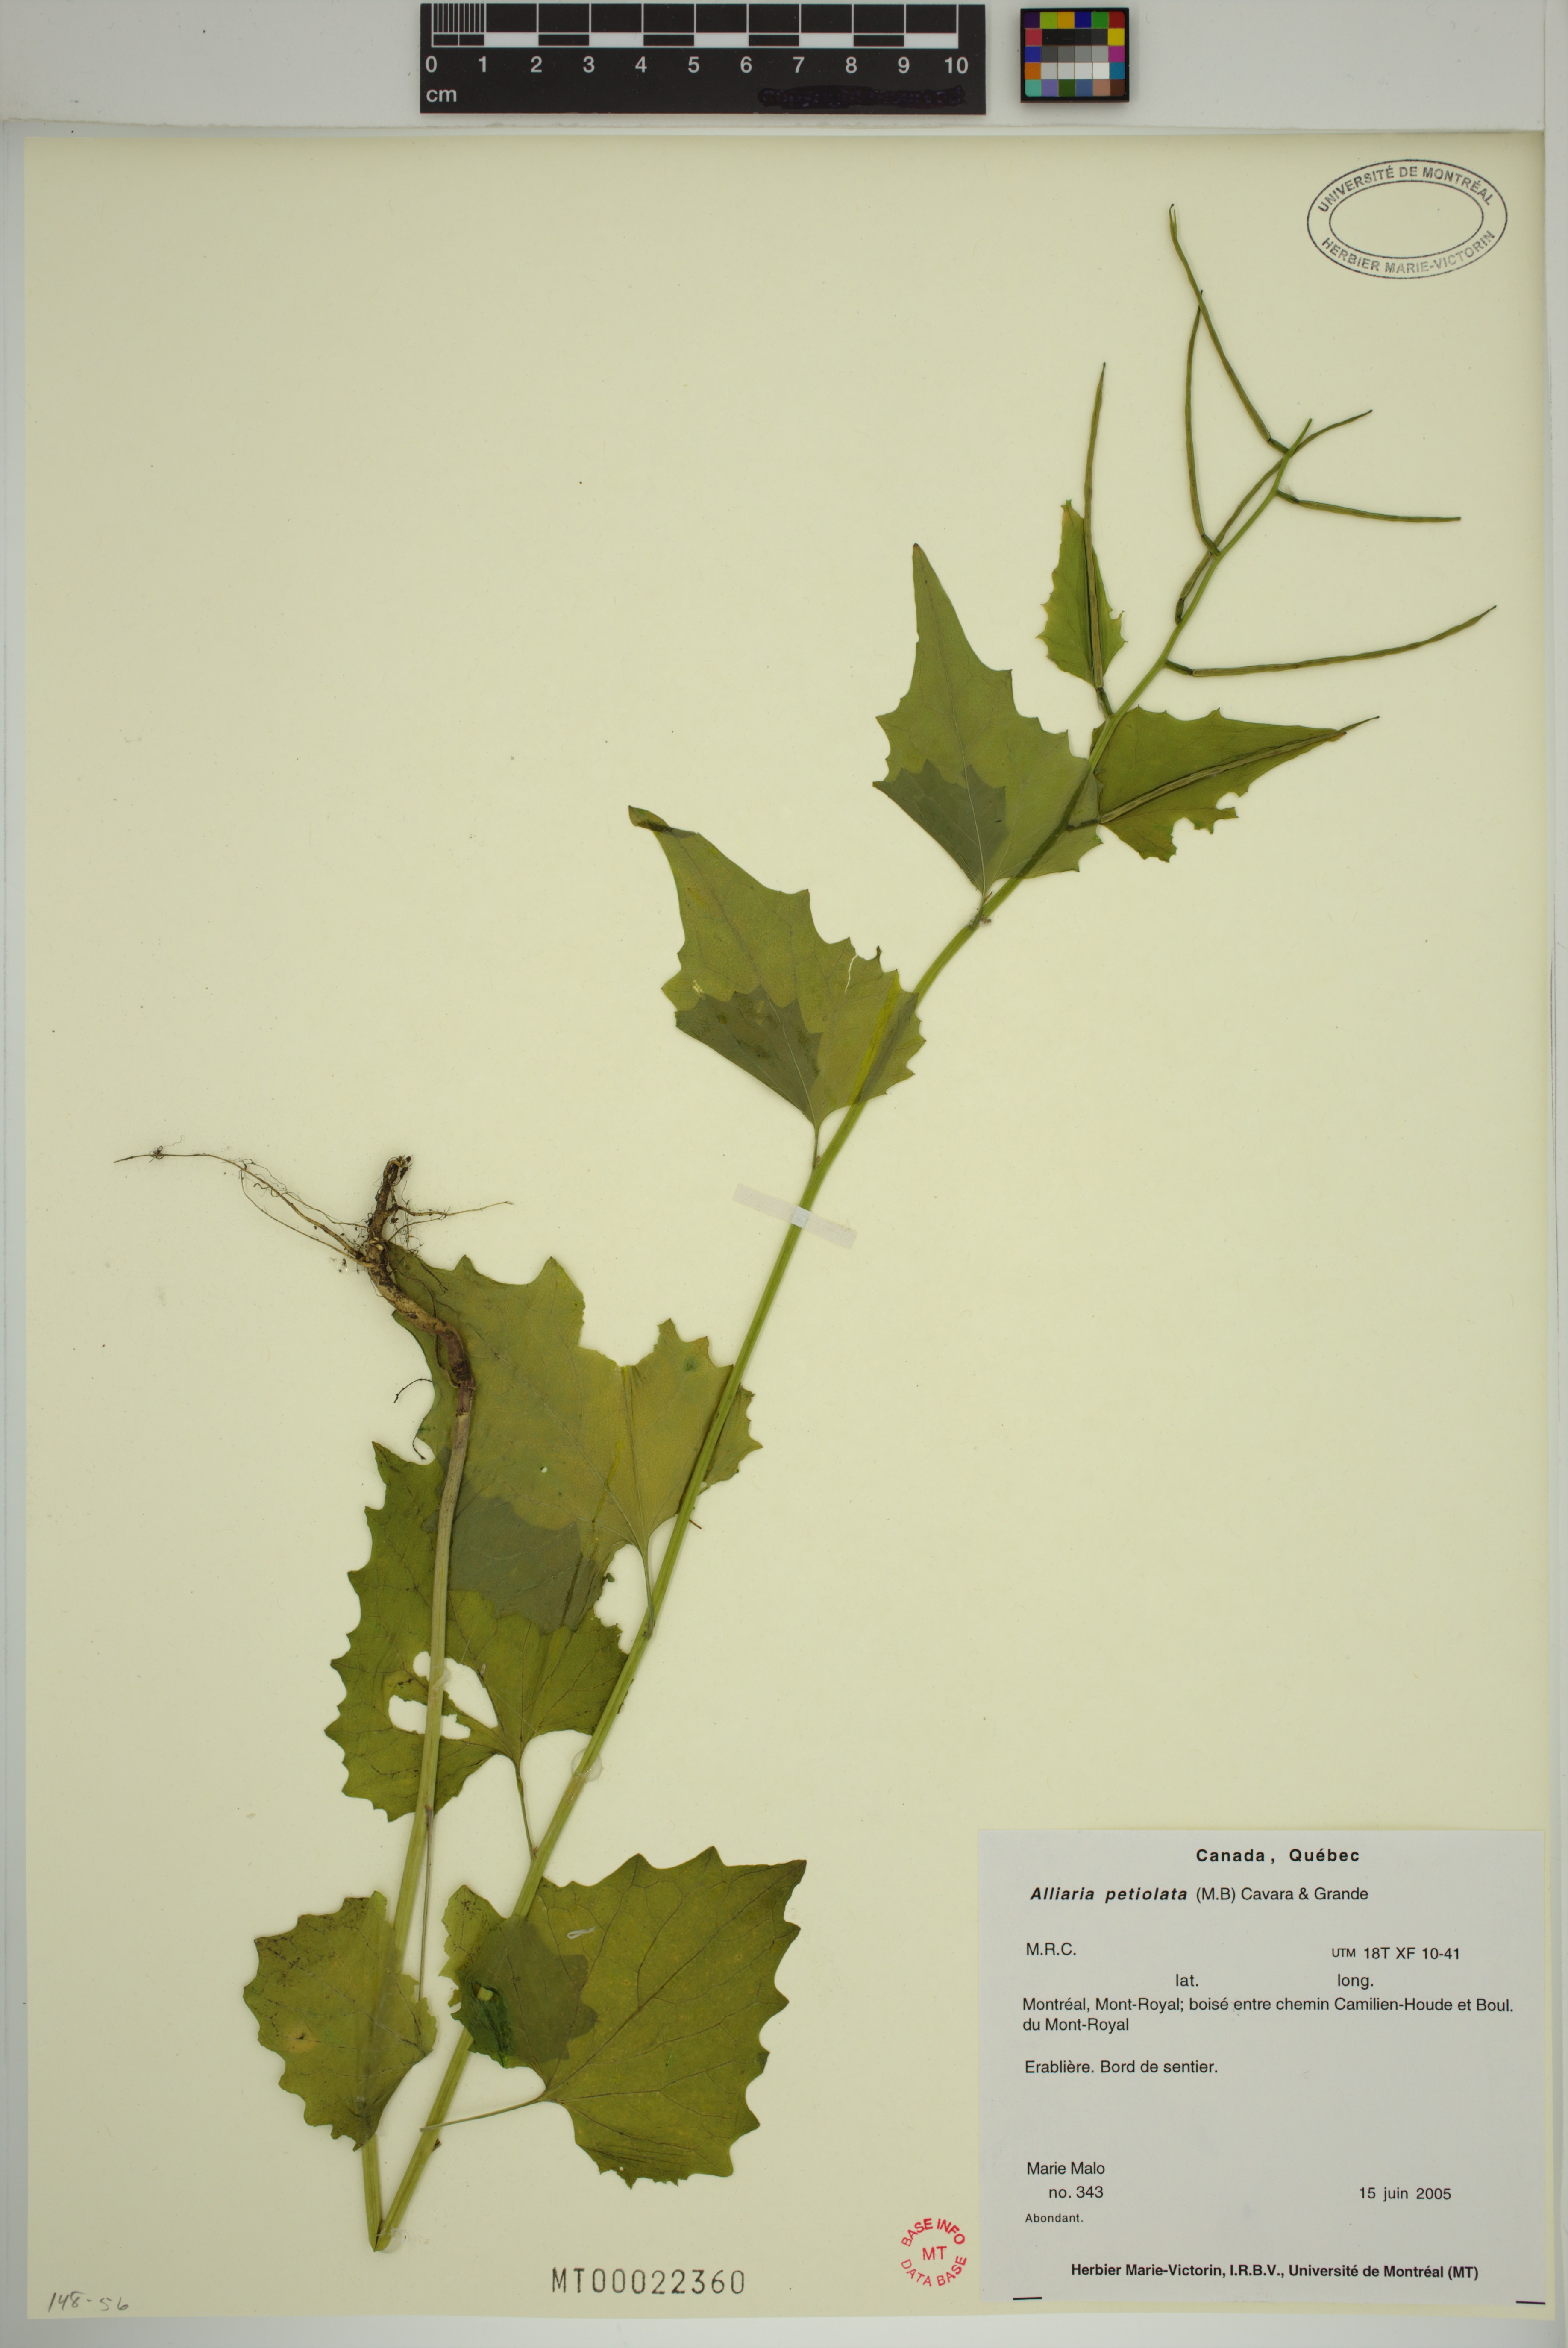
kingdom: Plantae
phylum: Tracheophyta
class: Magnoliopsida
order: Brassicales
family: Brassicaceae
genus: Alliaria
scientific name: Alliaria petiolata
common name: Garlic mustard
